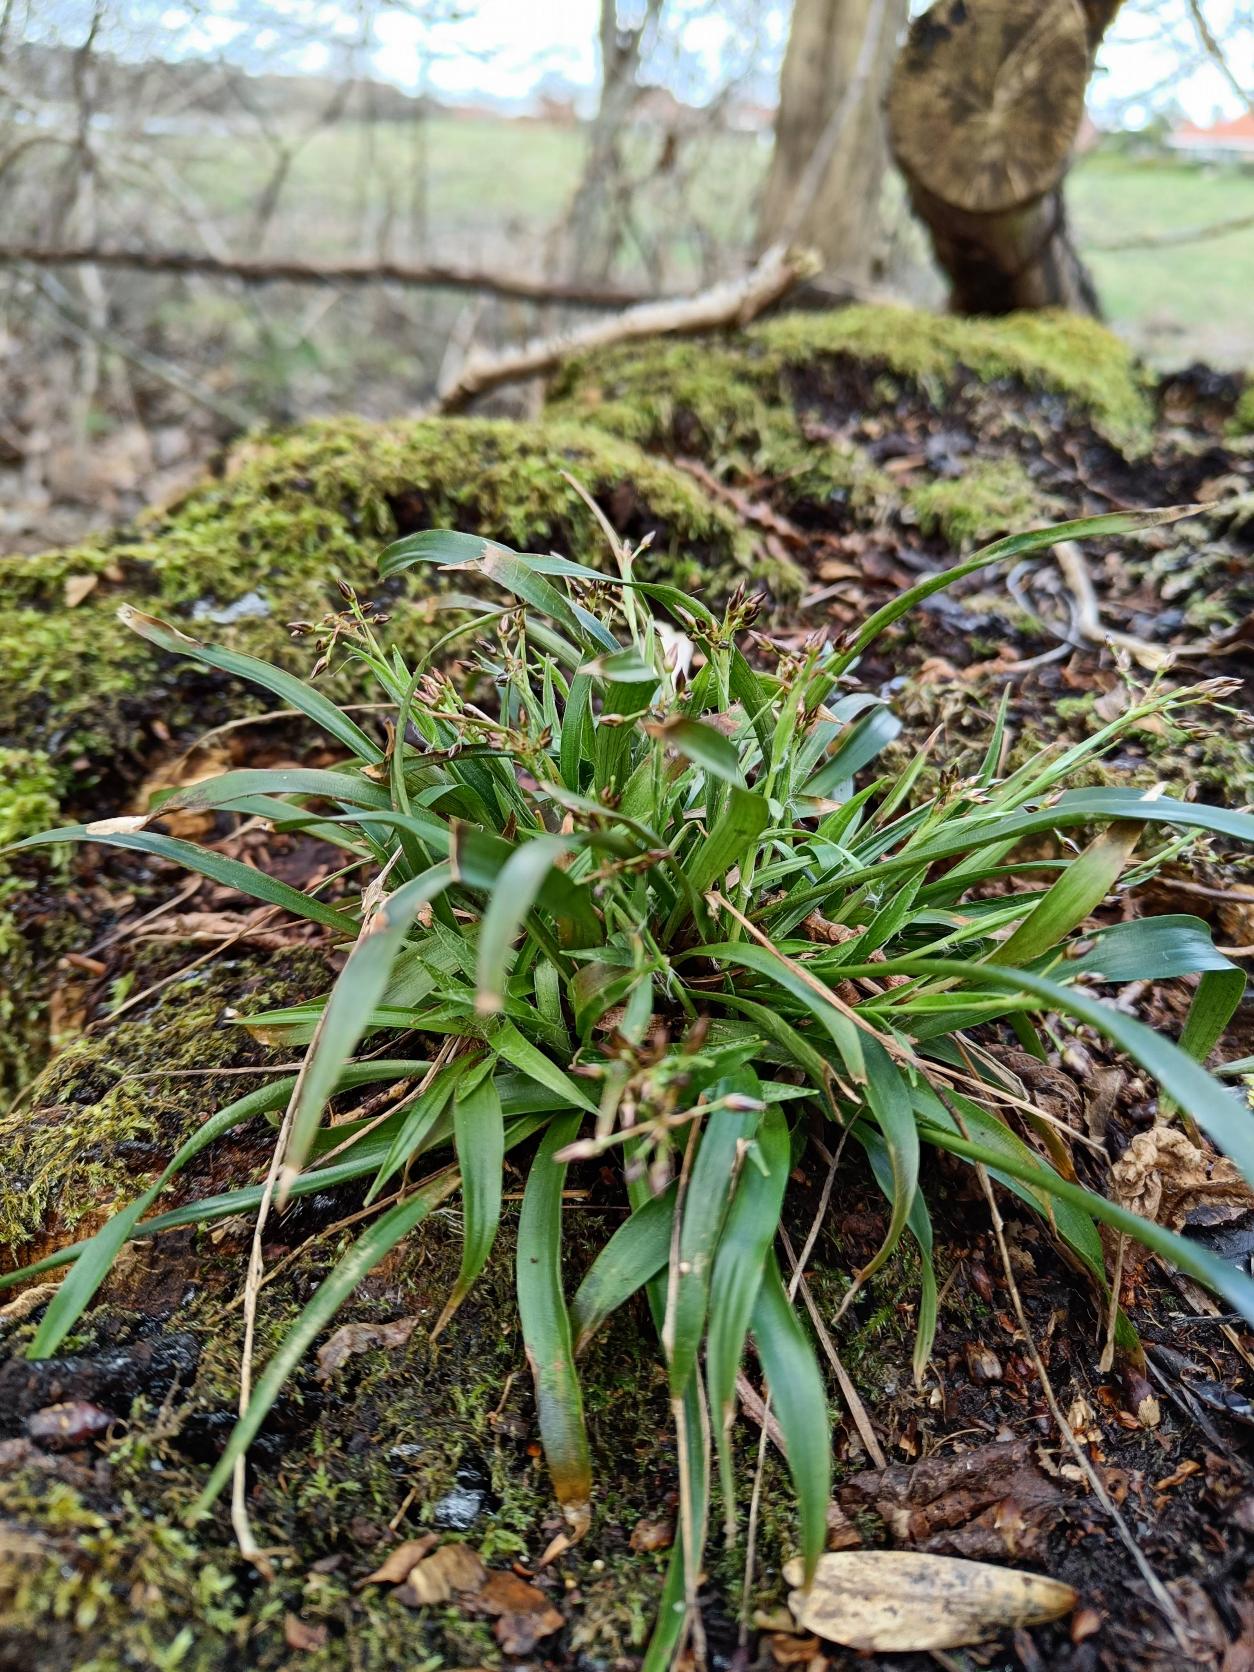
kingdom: Plantae
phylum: Tracheophyta
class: Liliopsida
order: Poales
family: Juncaceae
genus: Luzula
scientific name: Luzula pilosa
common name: Håret frytle
